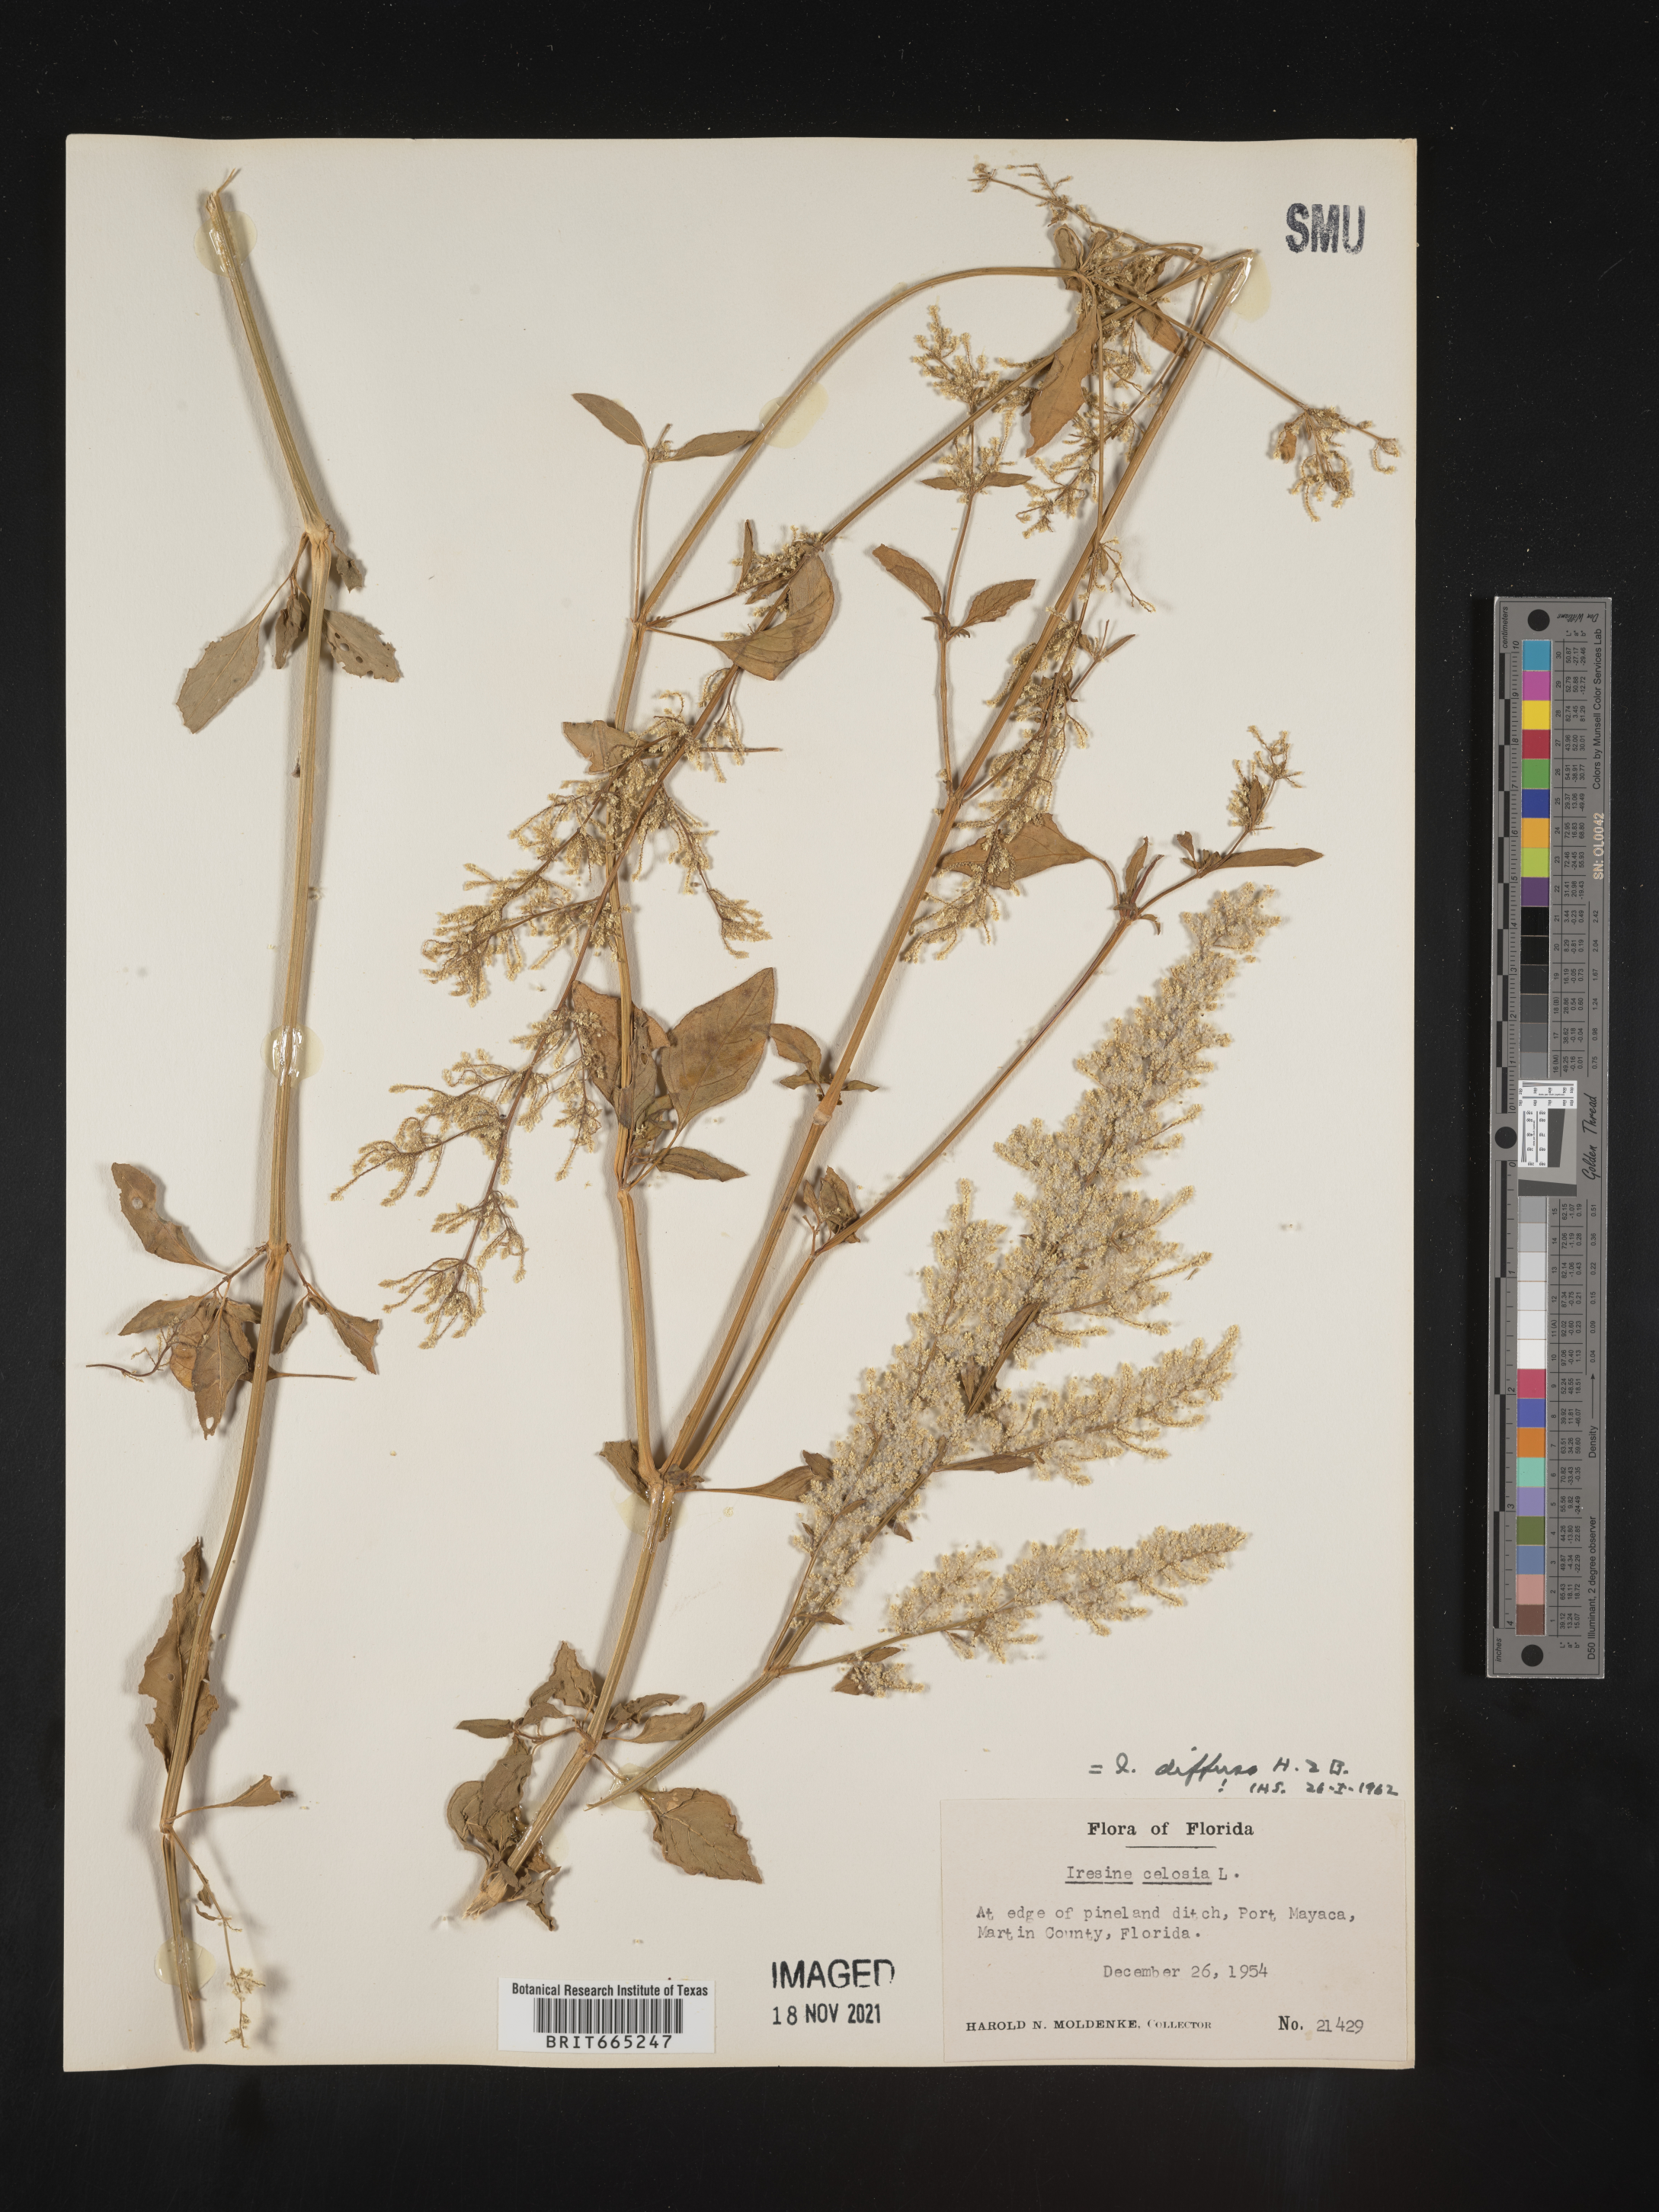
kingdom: Plantae
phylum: Tracheophyta
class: Magnoliopsida
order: Caryophyllales
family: Amaranthaceae
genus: Iresine
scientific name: Iresine
